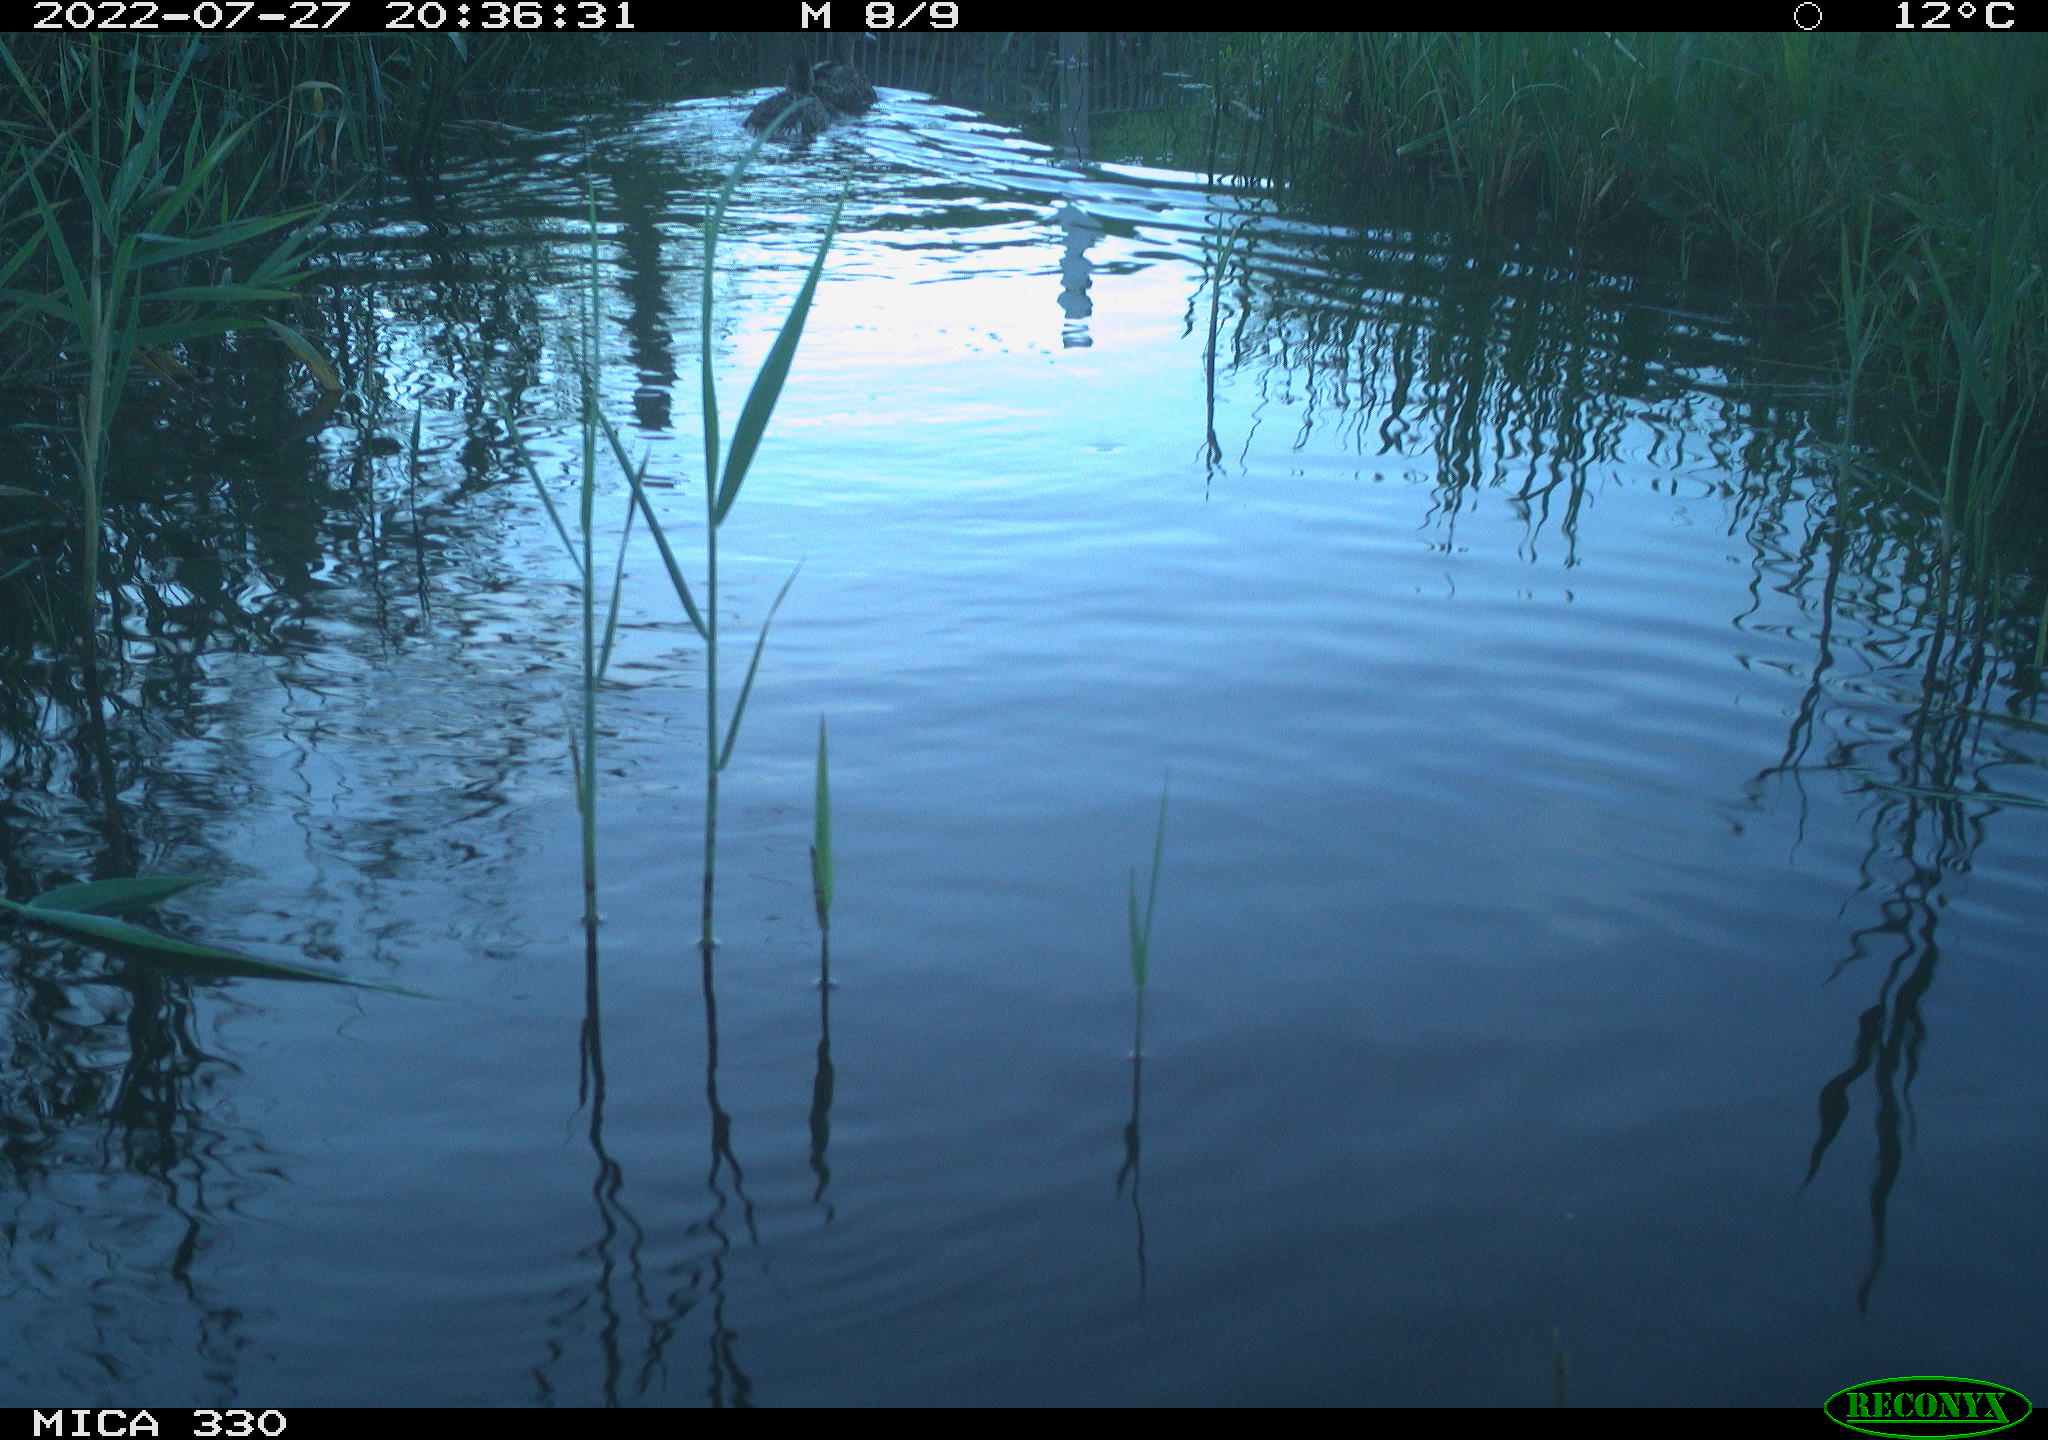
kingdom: Animalia
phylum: Chordata
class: Aves
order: Anseriformes
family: Anatidae
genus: Mareca
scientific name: Mareca strepera
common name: Gadwall
